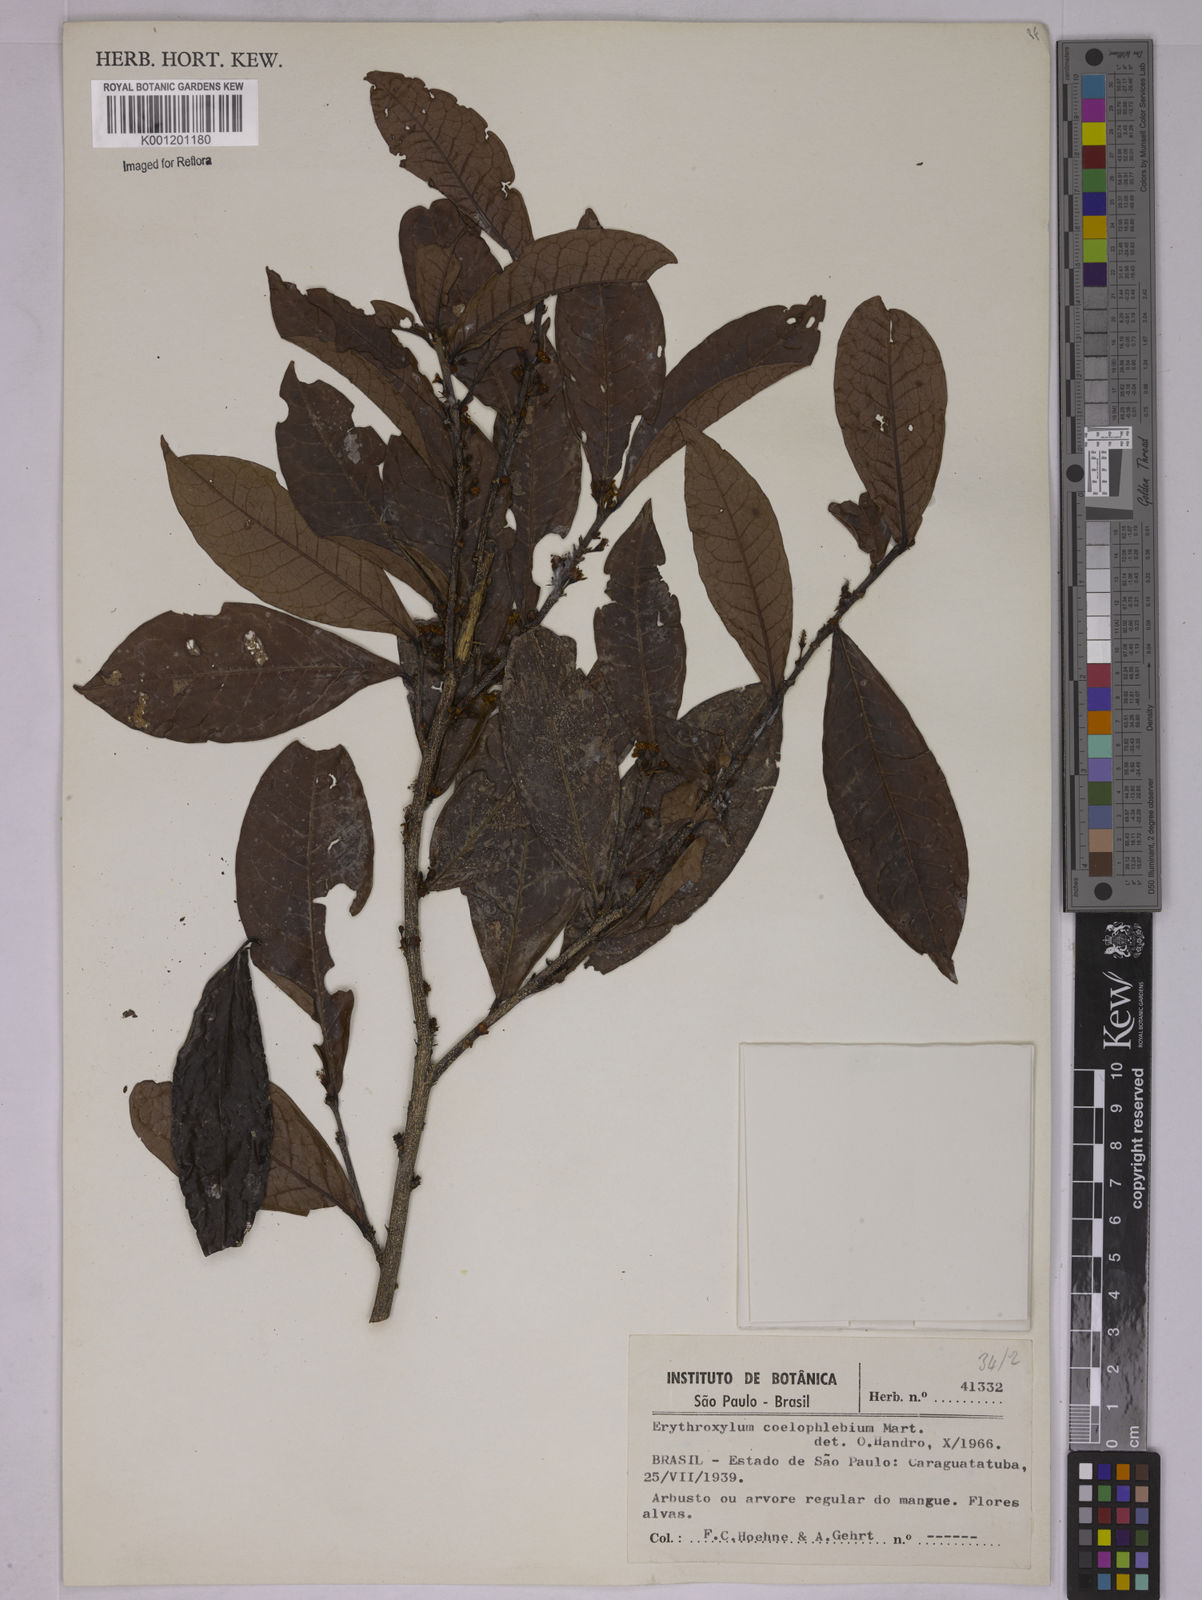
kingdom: Plantae
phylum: Tracheophyta
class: Magnoliopsida
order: Malpighiales
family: Erythroxylaceae
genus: Erythroxylum
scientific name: Erythroxylum coelophlebium
